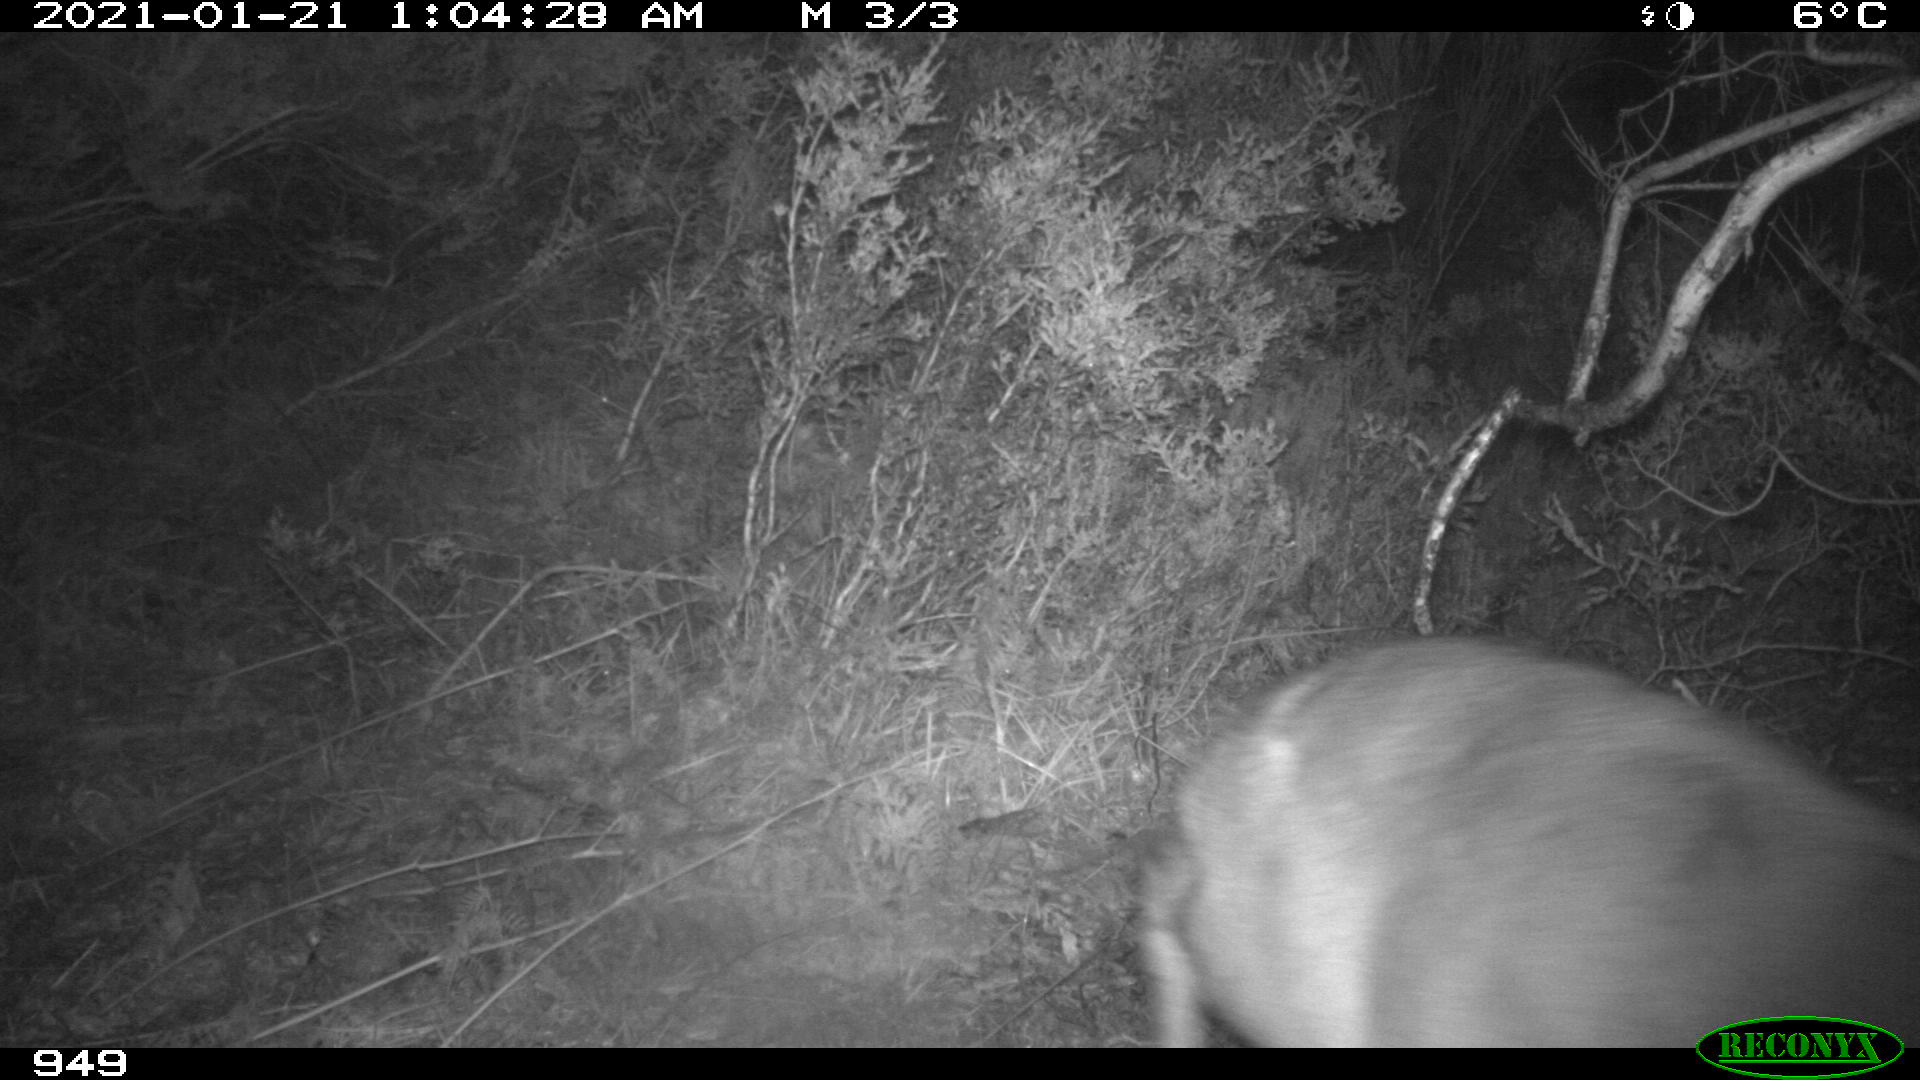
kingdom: Animalia
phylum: Chordata
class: Mammalia
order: Artiodactyla
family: Cervidae
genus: Capreolus
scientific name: Capreolus capreolus
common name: Western roe deer
